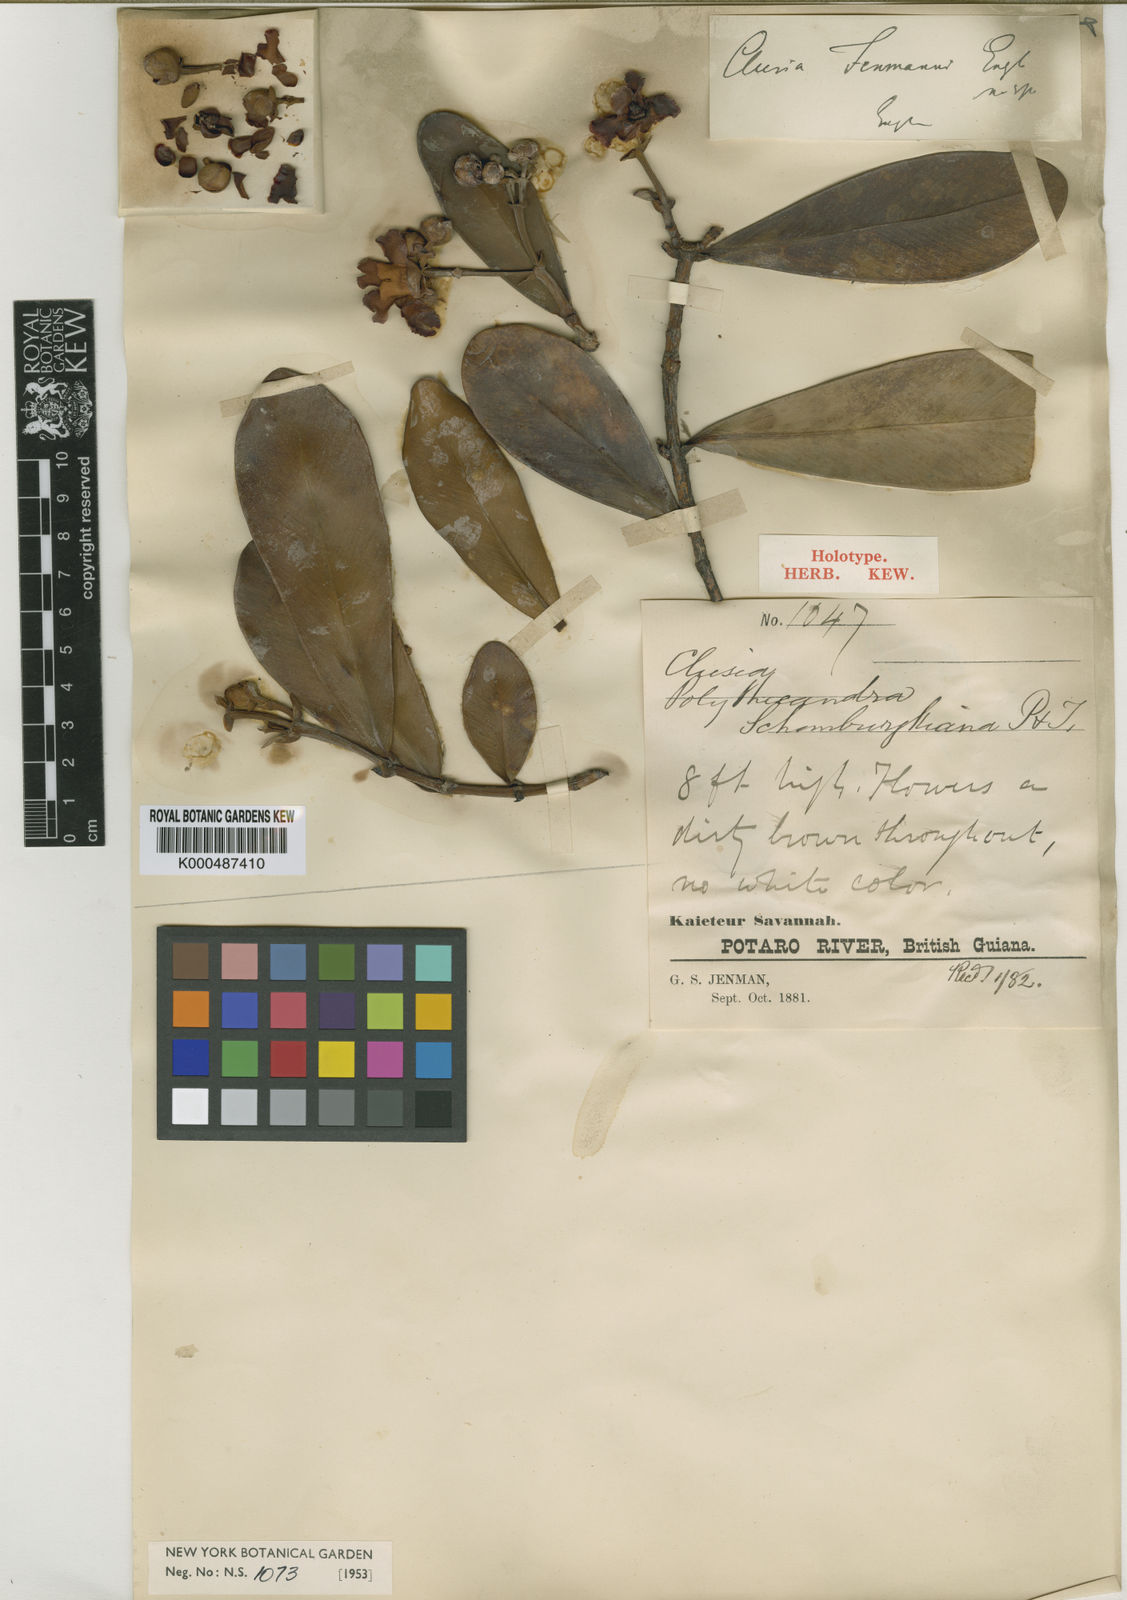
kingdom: Plantae
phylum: Tracheophyta
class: Magnoliopsida
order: Malpighiales
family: Clusiaceae
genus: Clusia
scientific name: Clusia myriandra
